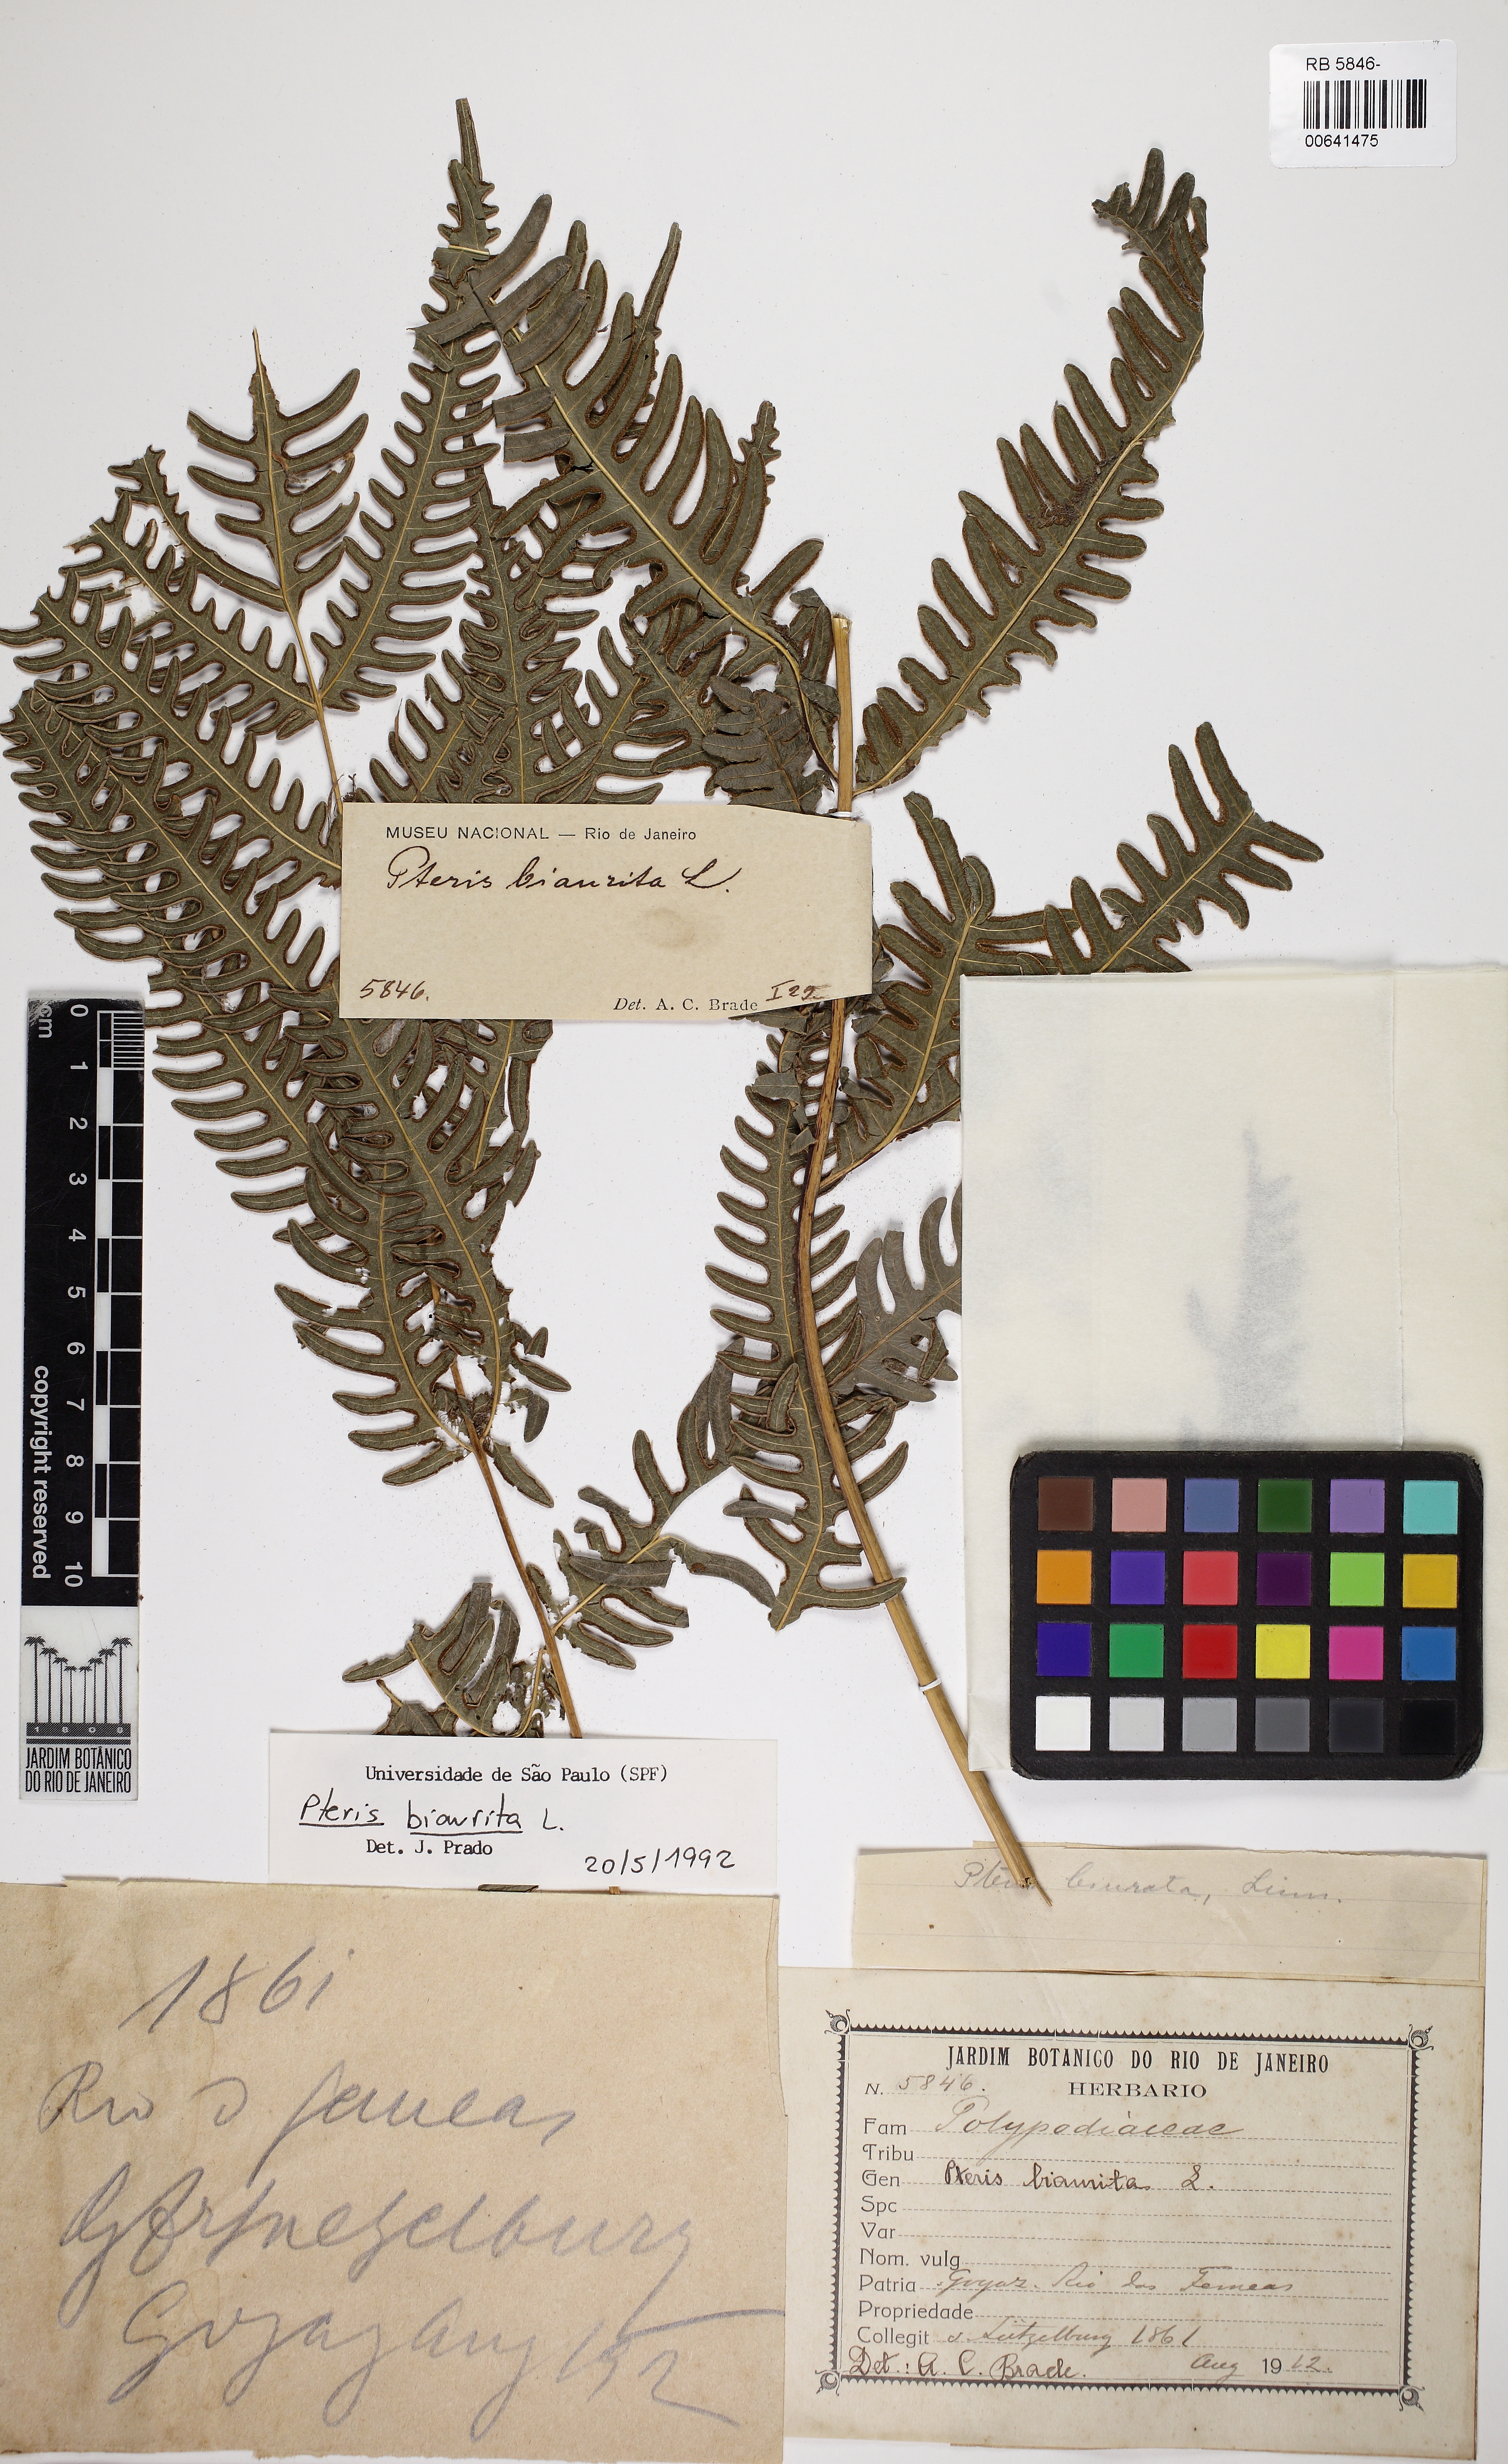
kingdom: Plantae
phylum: Tracheophyta
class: Polypodiopsida
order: Polypodiales
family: Pteridaceae
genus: Pteris
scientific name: Pteris biaurita
